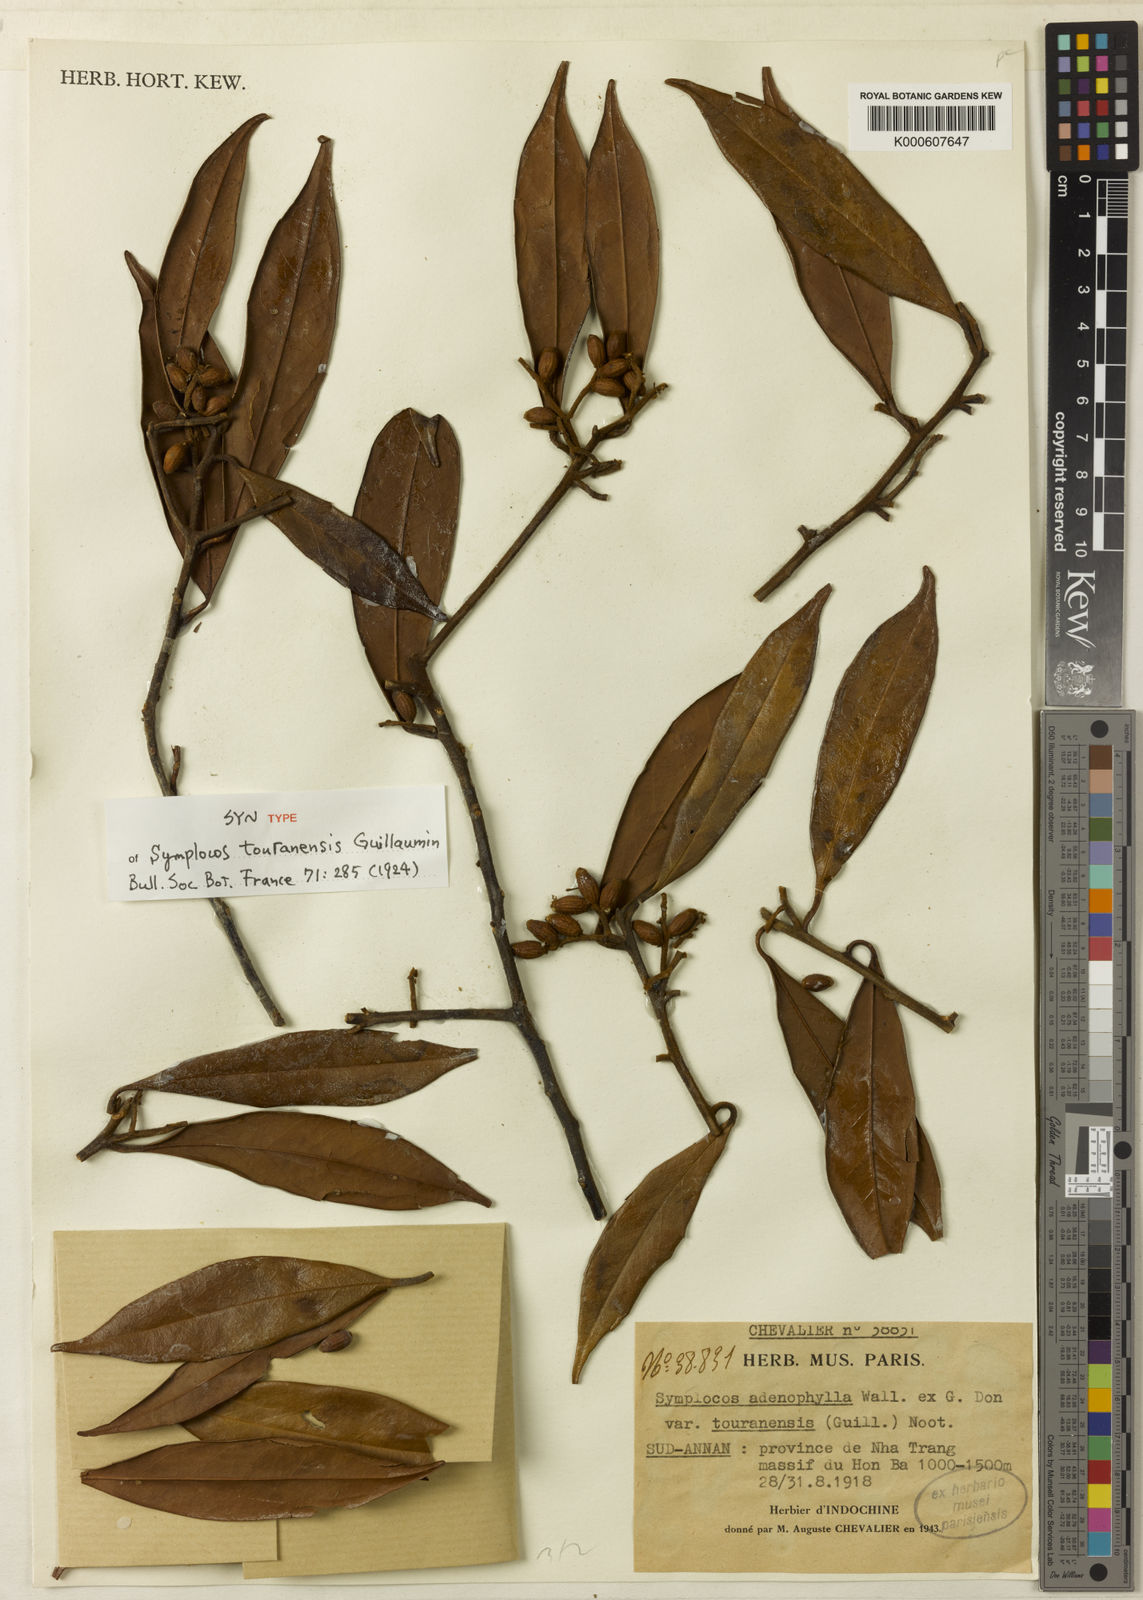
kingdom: Plantae
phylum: Tracheophyta
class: Magnoliopsida
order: Ericales
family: Symplocaceae
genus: Symplocos
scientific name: Symplocos adenophylla
